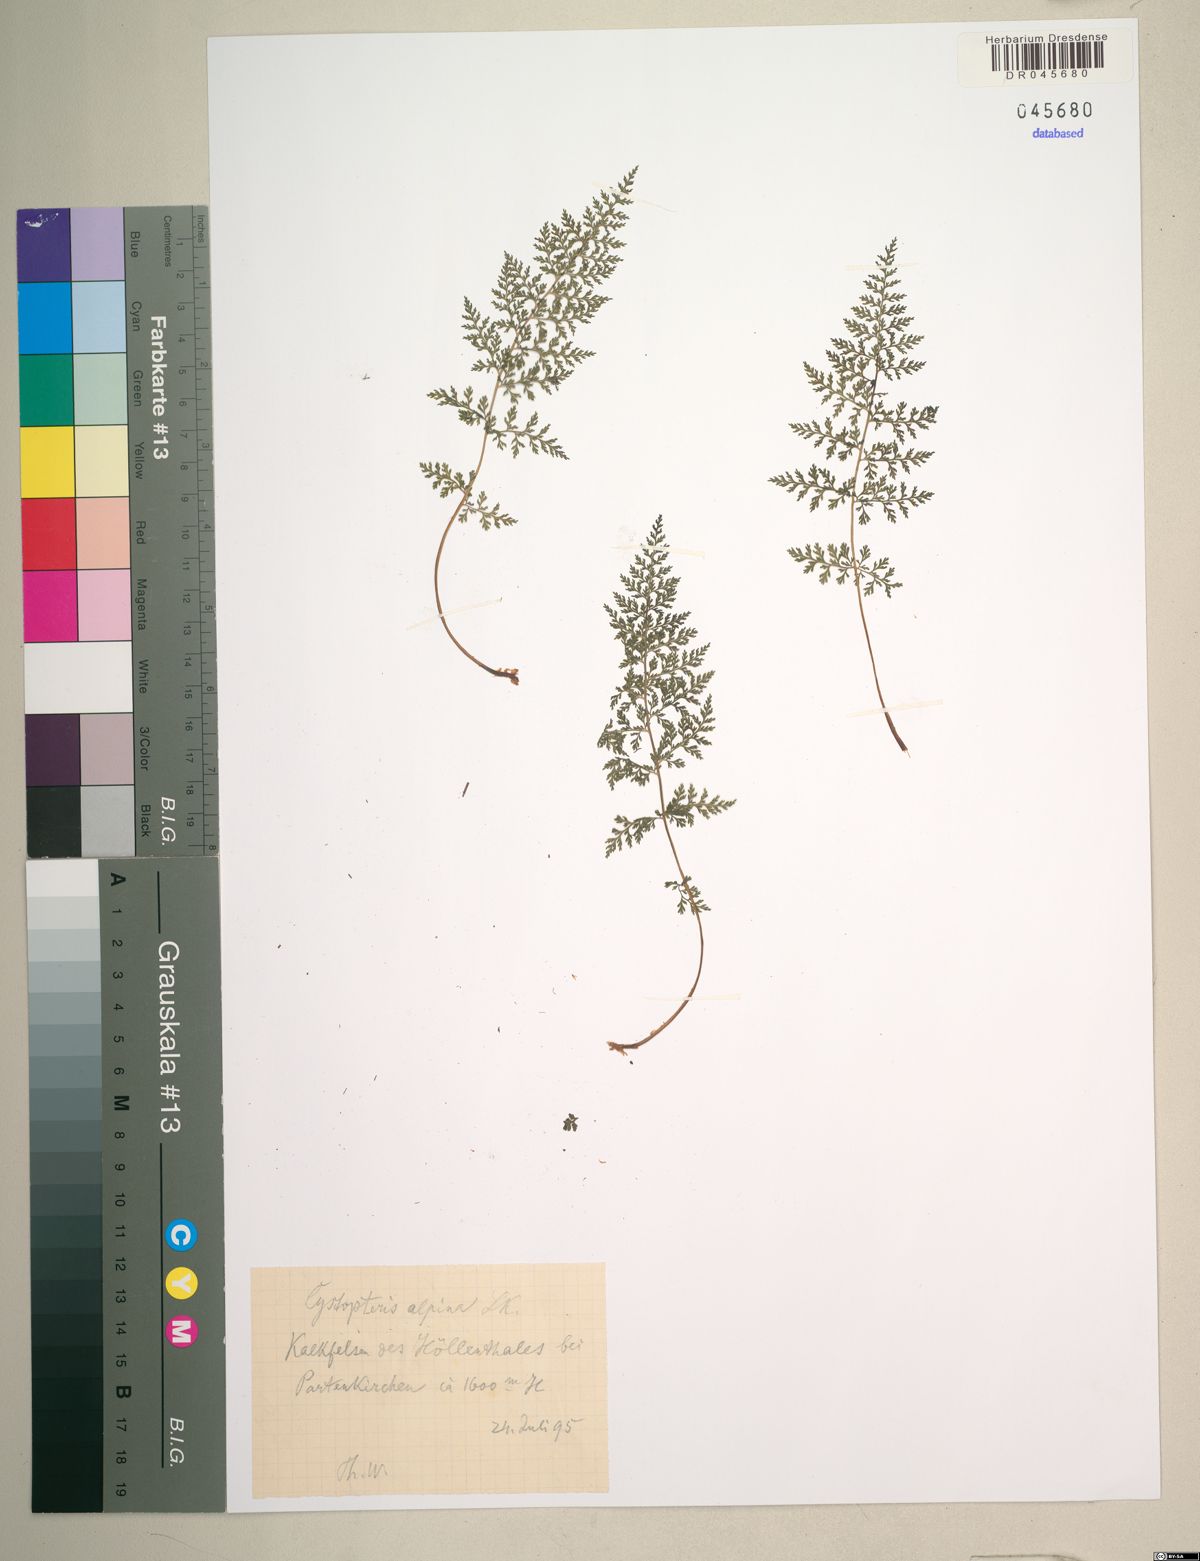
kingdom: Plantae
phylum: Tracheophyta
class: Polypodiopsida
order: Polypodiales
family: Cystopteridaceae
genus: Cystopteris
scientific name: Cystopteris alpina
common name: Alpine bladder-fern
